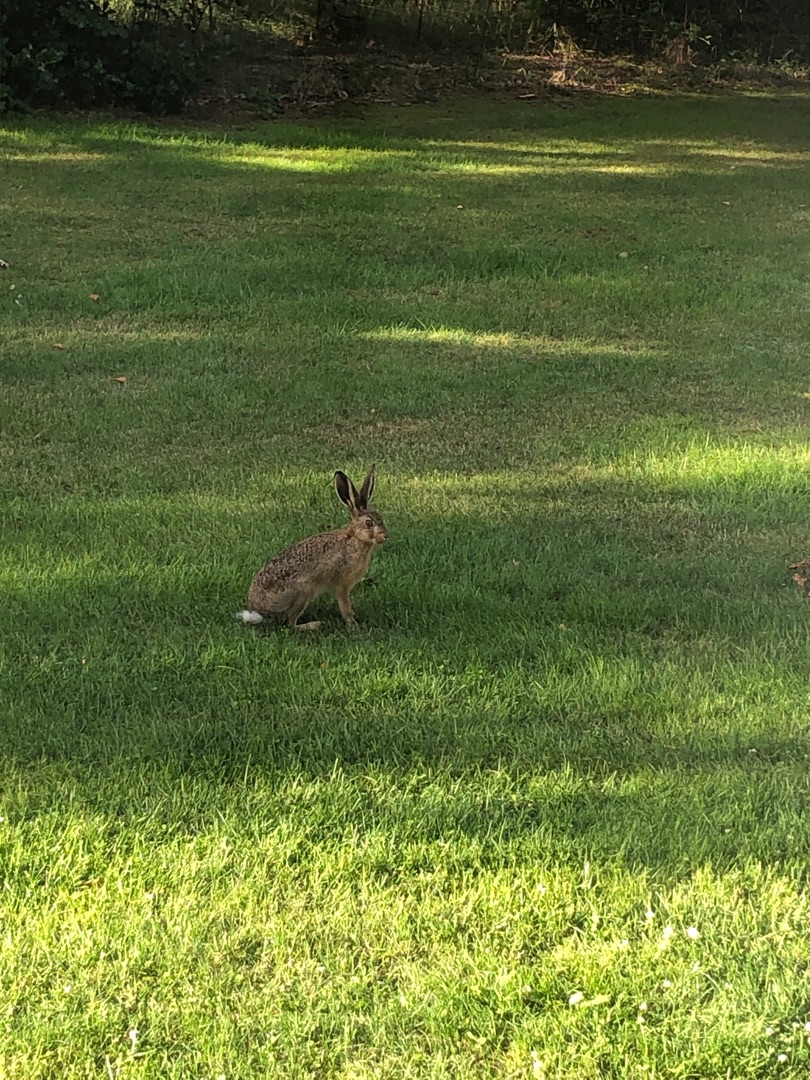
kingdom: Animalia
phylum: Chordata
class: Mammalia
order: Lagomorpha
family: Leporidae
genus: Lepus
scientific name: Lepus europaeus
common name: Hare
